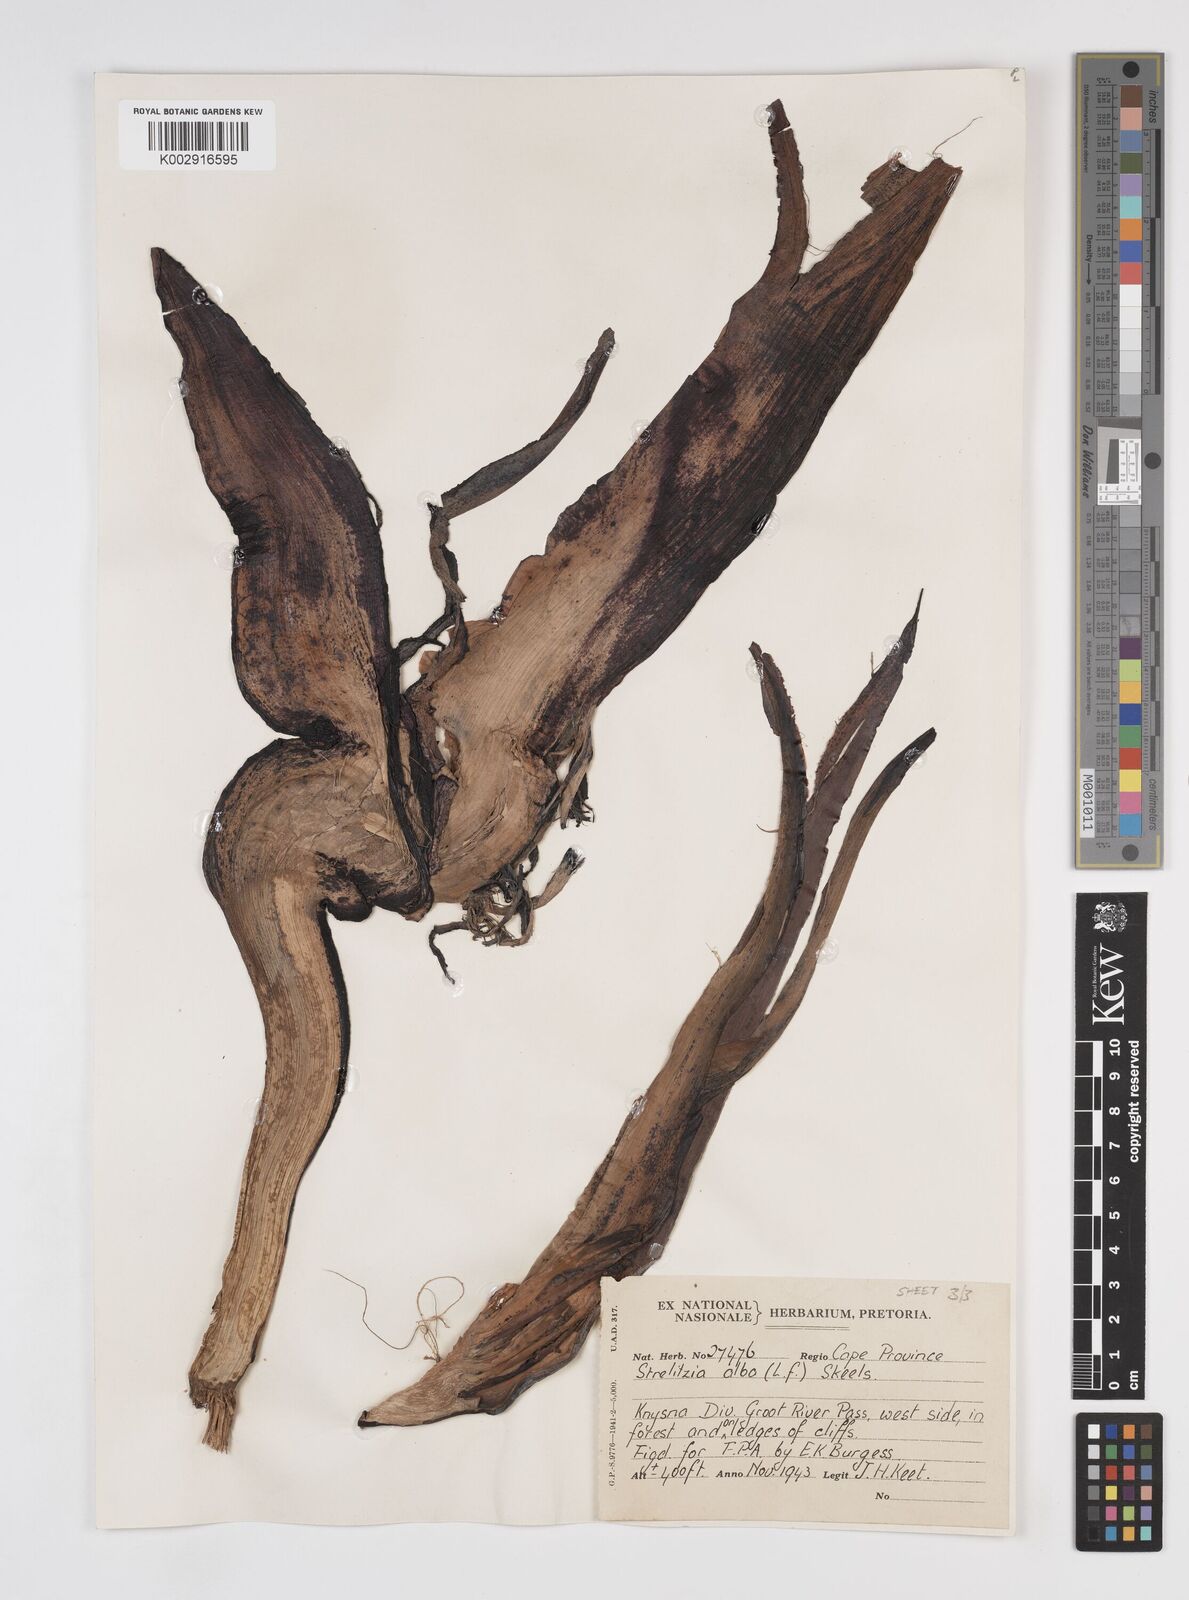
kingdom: Plantae
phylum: Tracheophyta
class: Liliopsida
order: Zingiberales
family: Strelitziaceae
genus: Strelitzia
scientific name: Strelitzia
